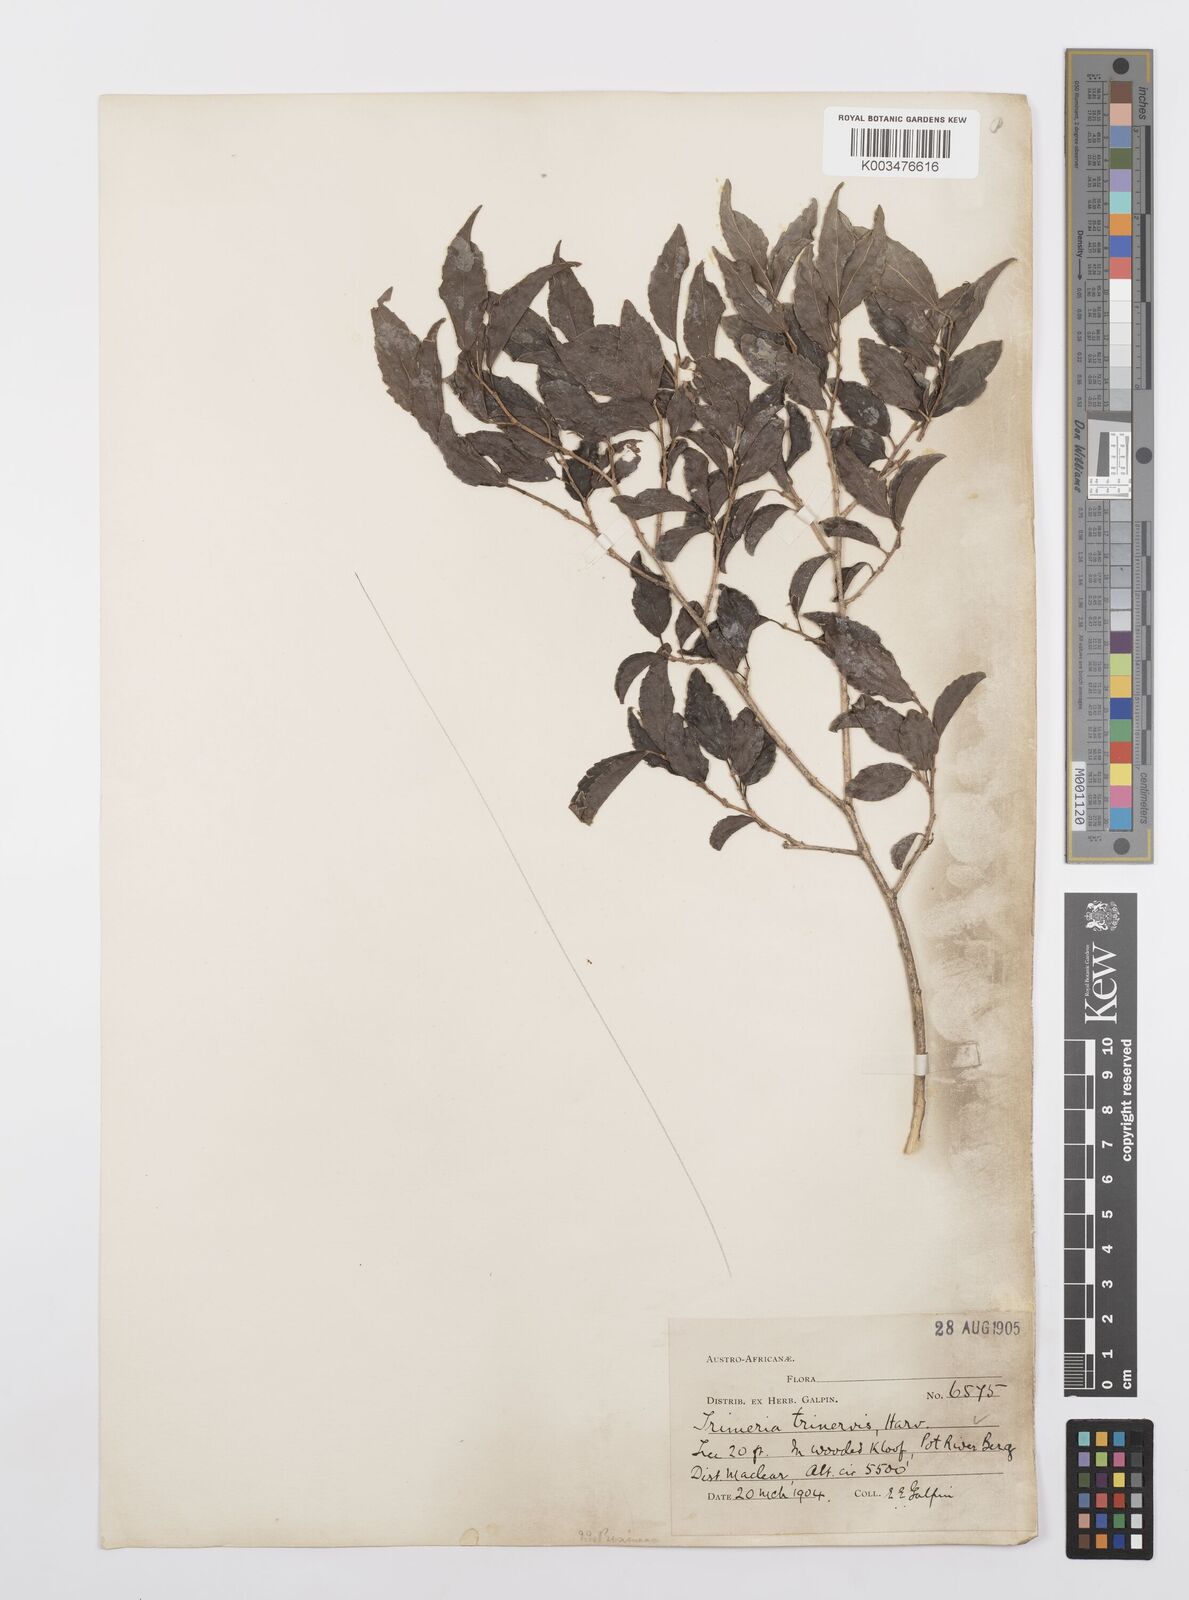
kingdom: Plantae
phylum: Tracheophyta
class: Magnoliopsida
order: Malpighiales
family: Salicaceae
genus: Trimeria
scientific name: Trimeria trinervis
